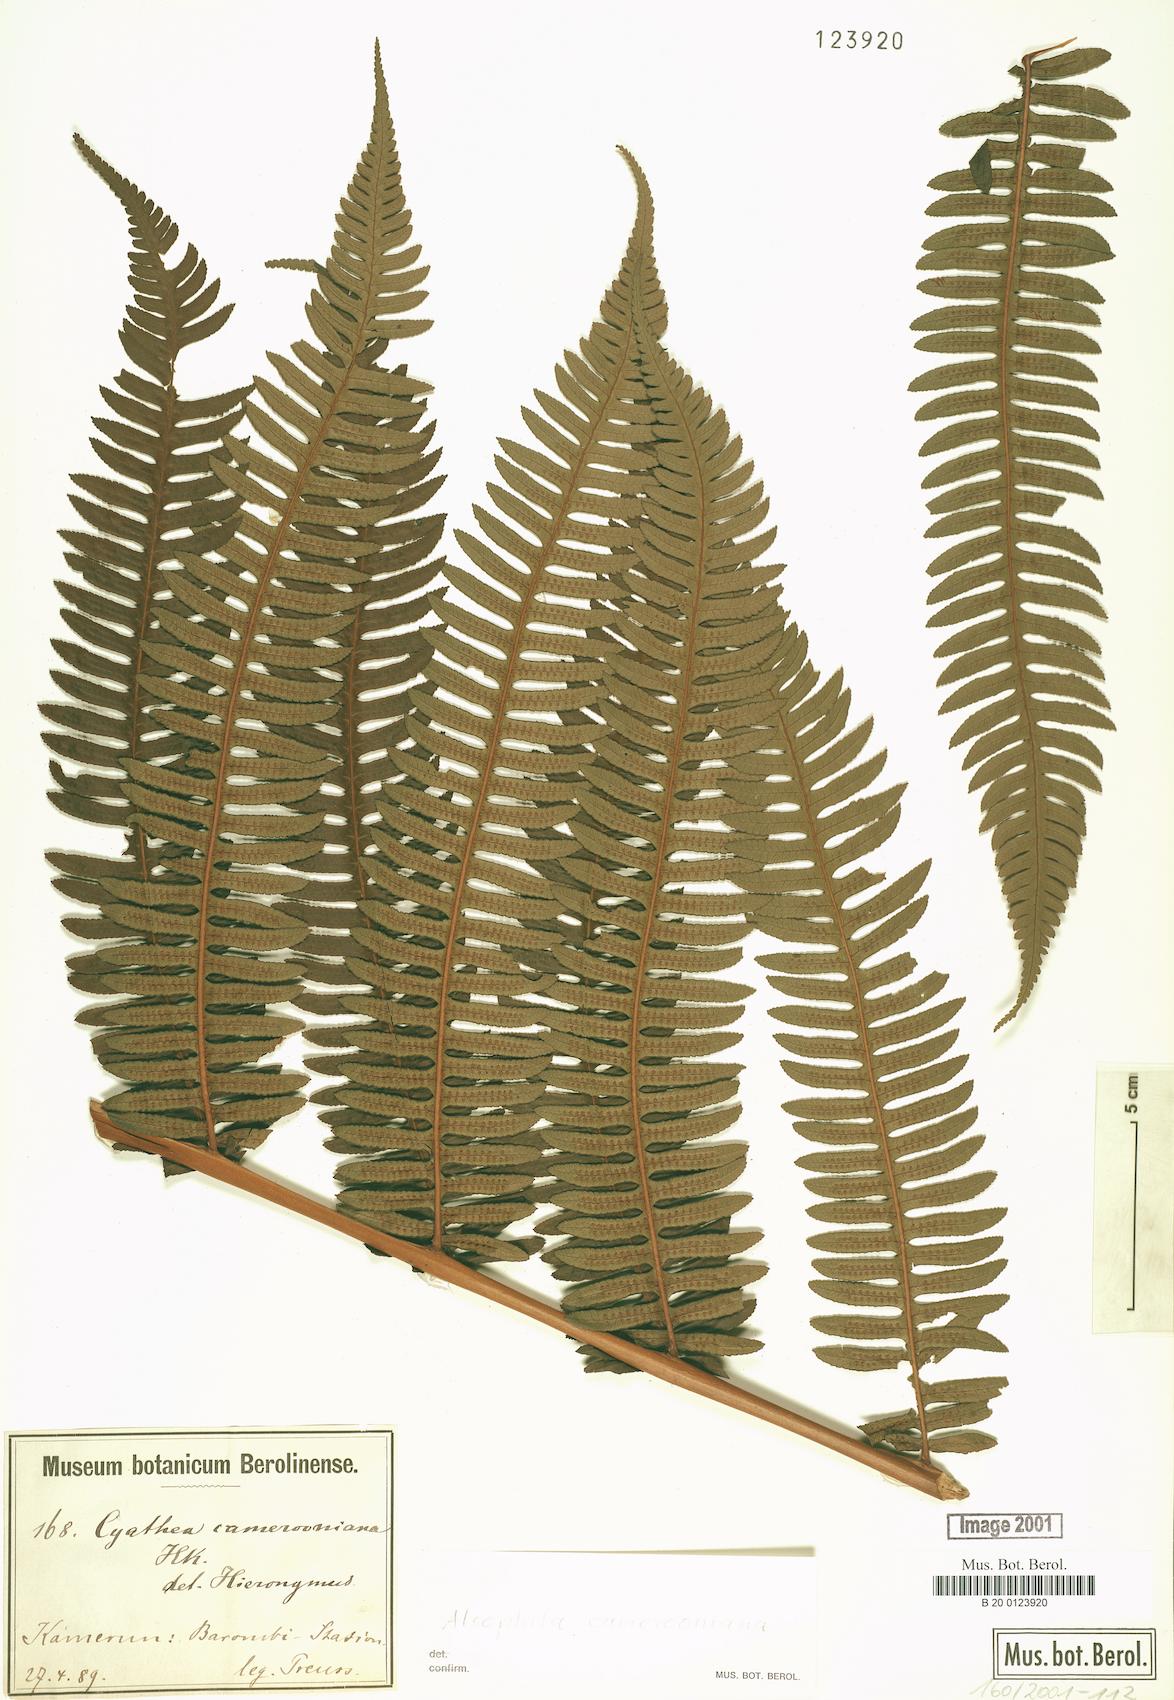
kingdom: Plantae
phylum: Tracheophyta
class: Polypodiopsida
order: Cyatheales
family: Cyatheaceae
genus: Alsophila
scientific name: Alsophila camerooniana
